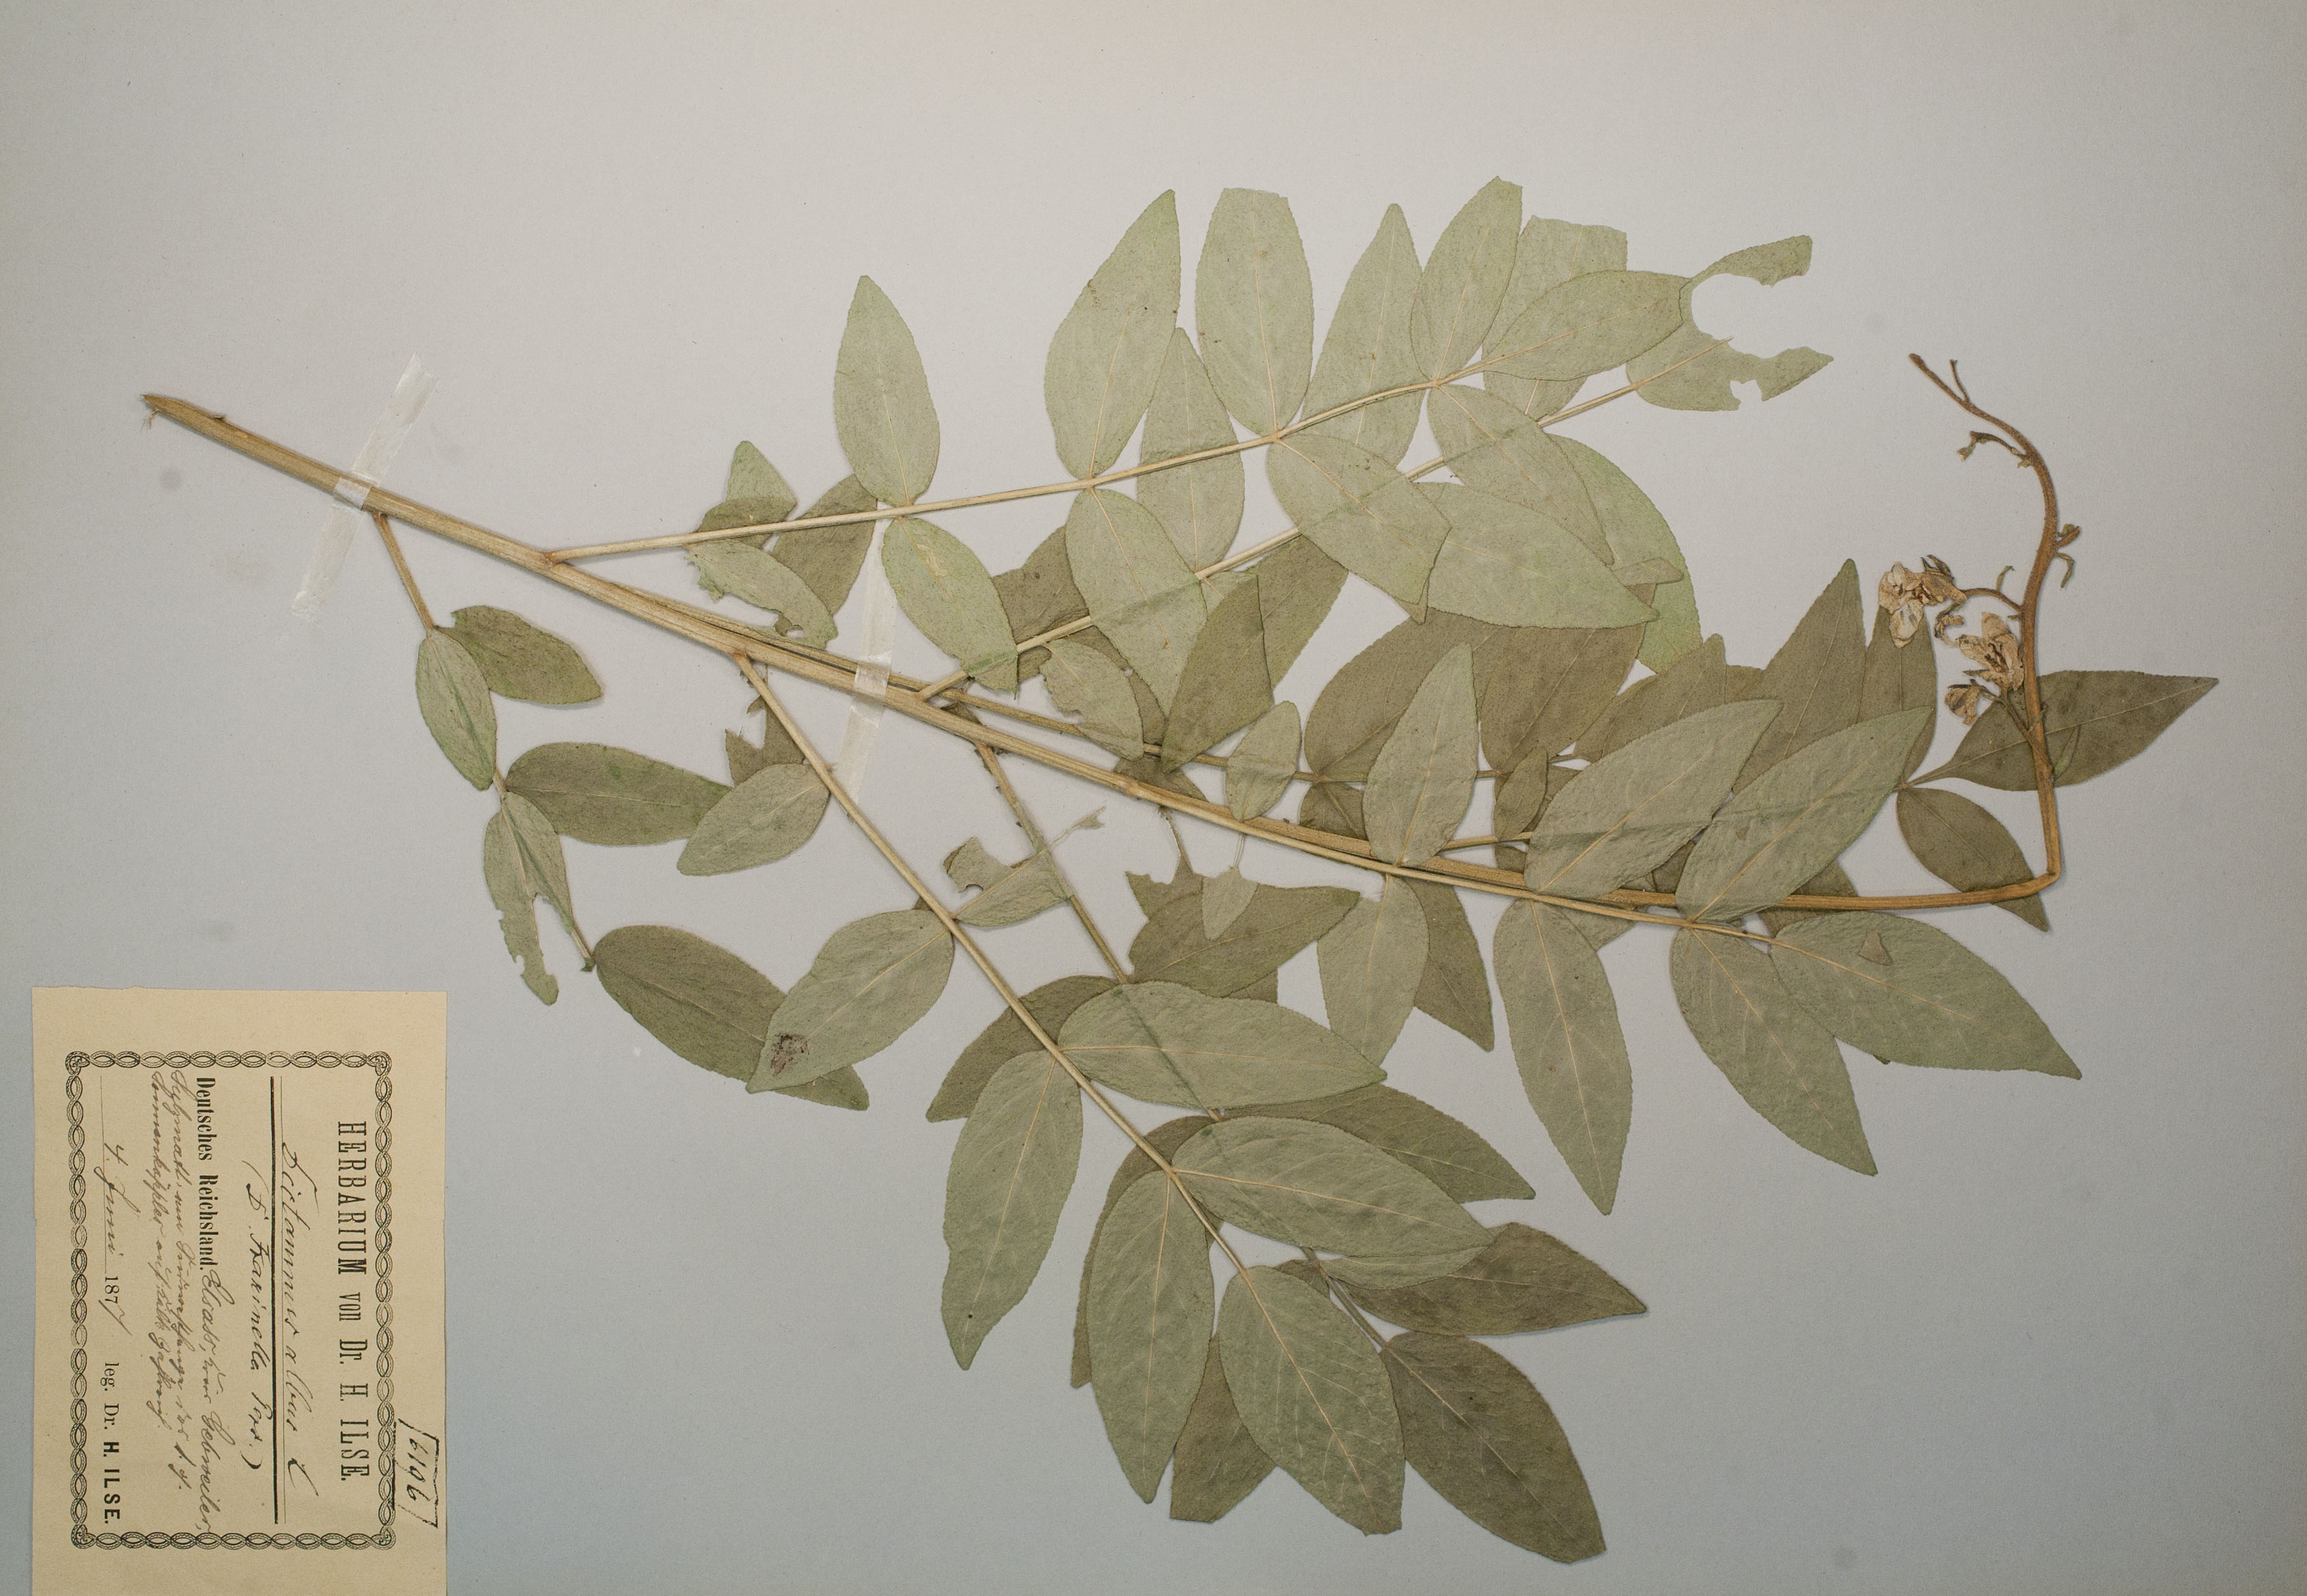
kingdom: Plantae
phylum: Tracheophyta
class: Magnoliopsida
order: Sapindales
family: Rutaceae
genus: Dictamnus
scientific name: Dictamnus albus
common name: Gasplant
